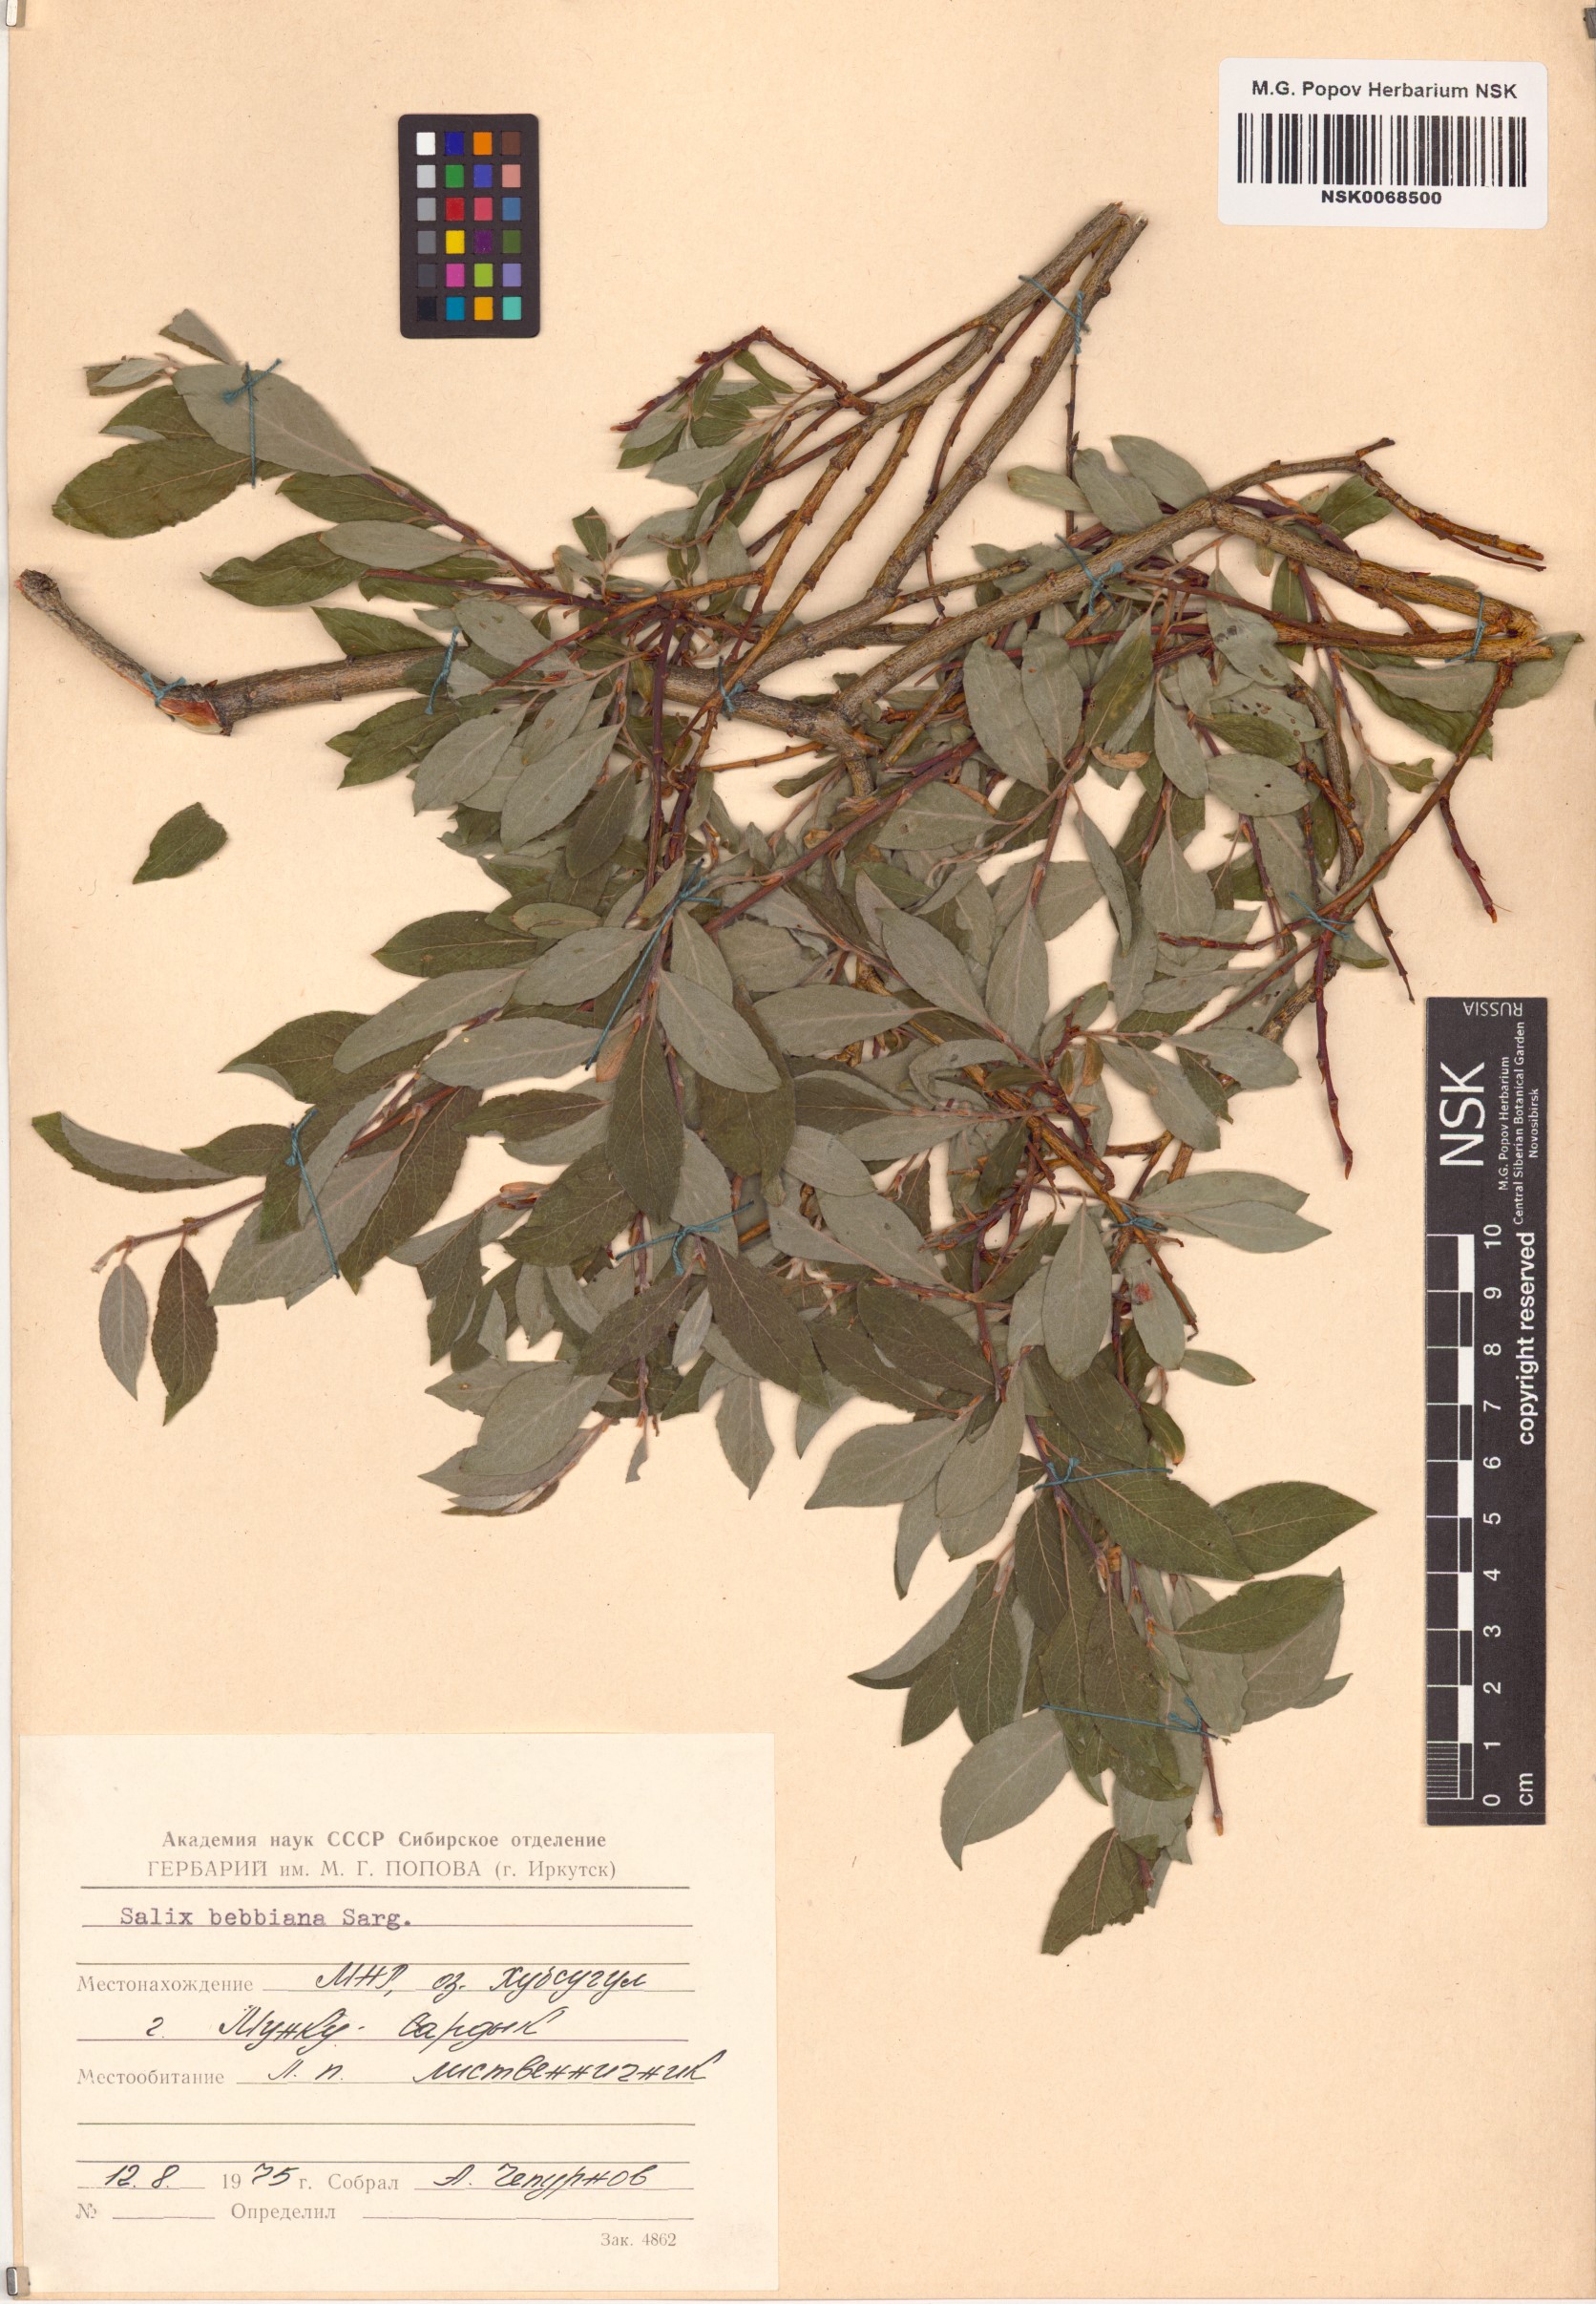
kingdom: Plantae
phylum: Tracheophyta
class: Magnoliopsida
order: Malpighiales
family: Salicaceae
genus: Salix
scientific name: Salix bebbiana
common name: Bebb's willow
